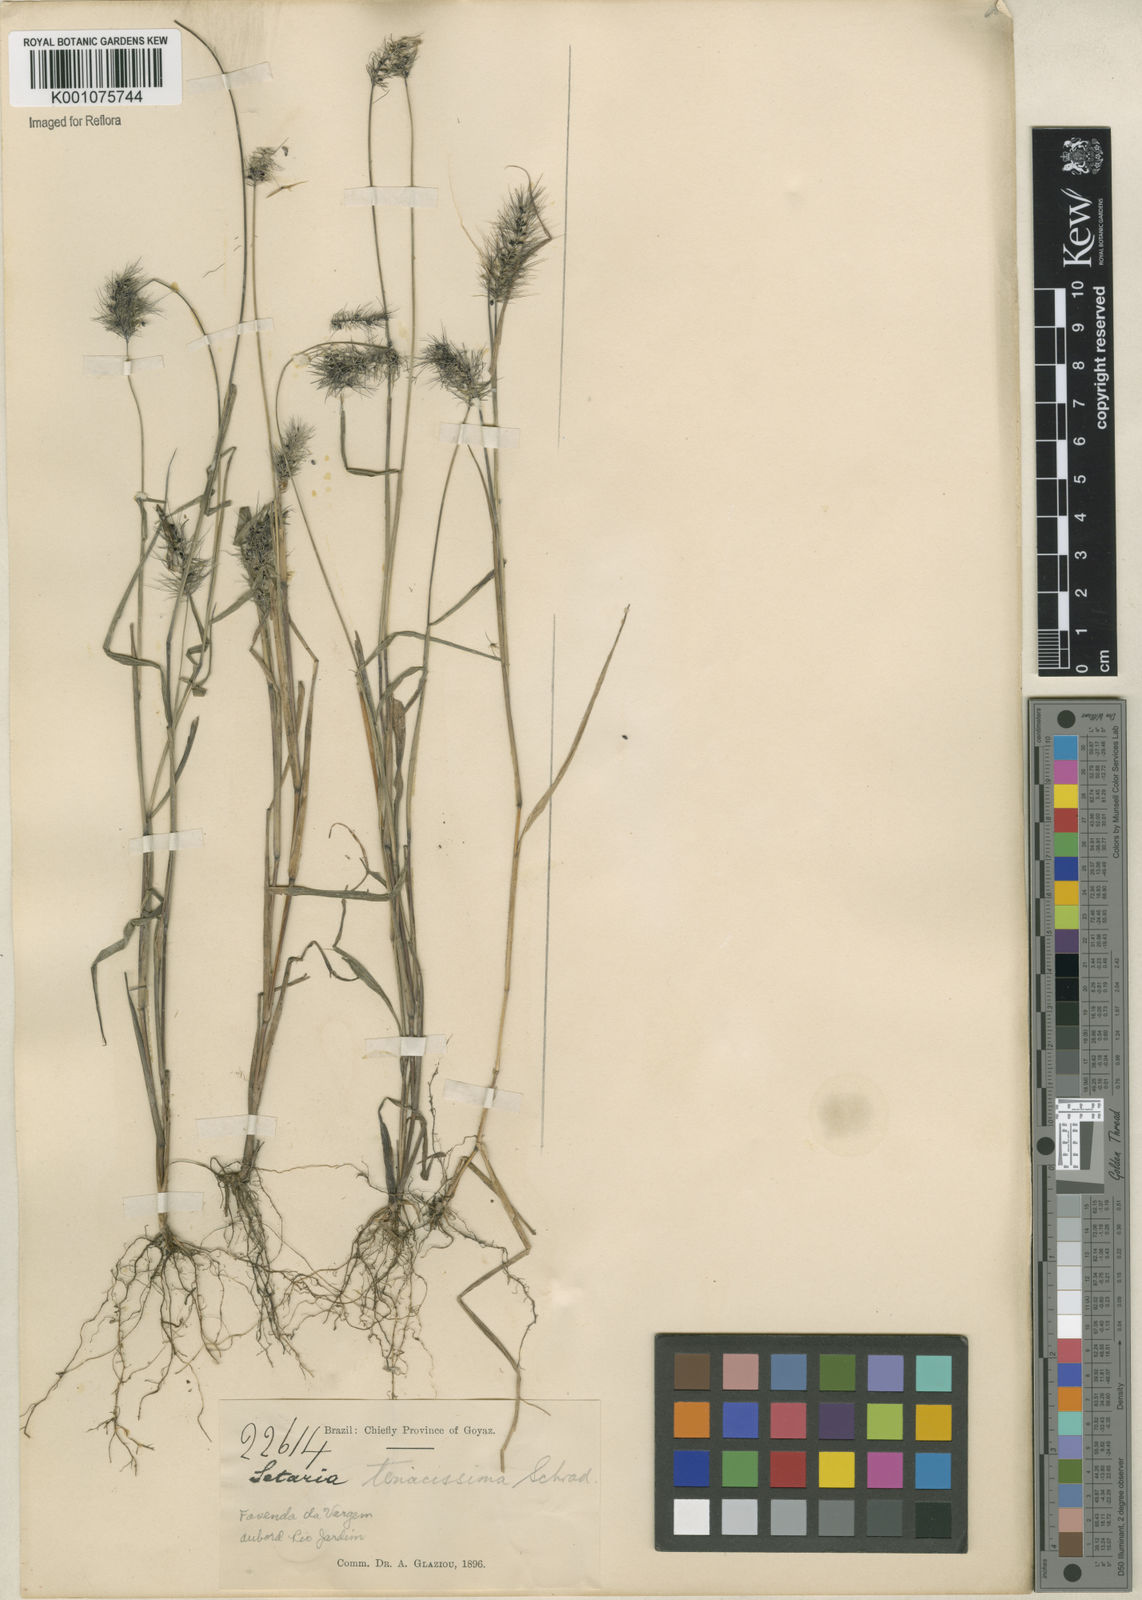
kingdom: Plantae
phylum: Tracheophyta
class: Liliopsida
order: Poales
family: Poaceae
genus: Setaria
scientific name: Setaria tenacissima
